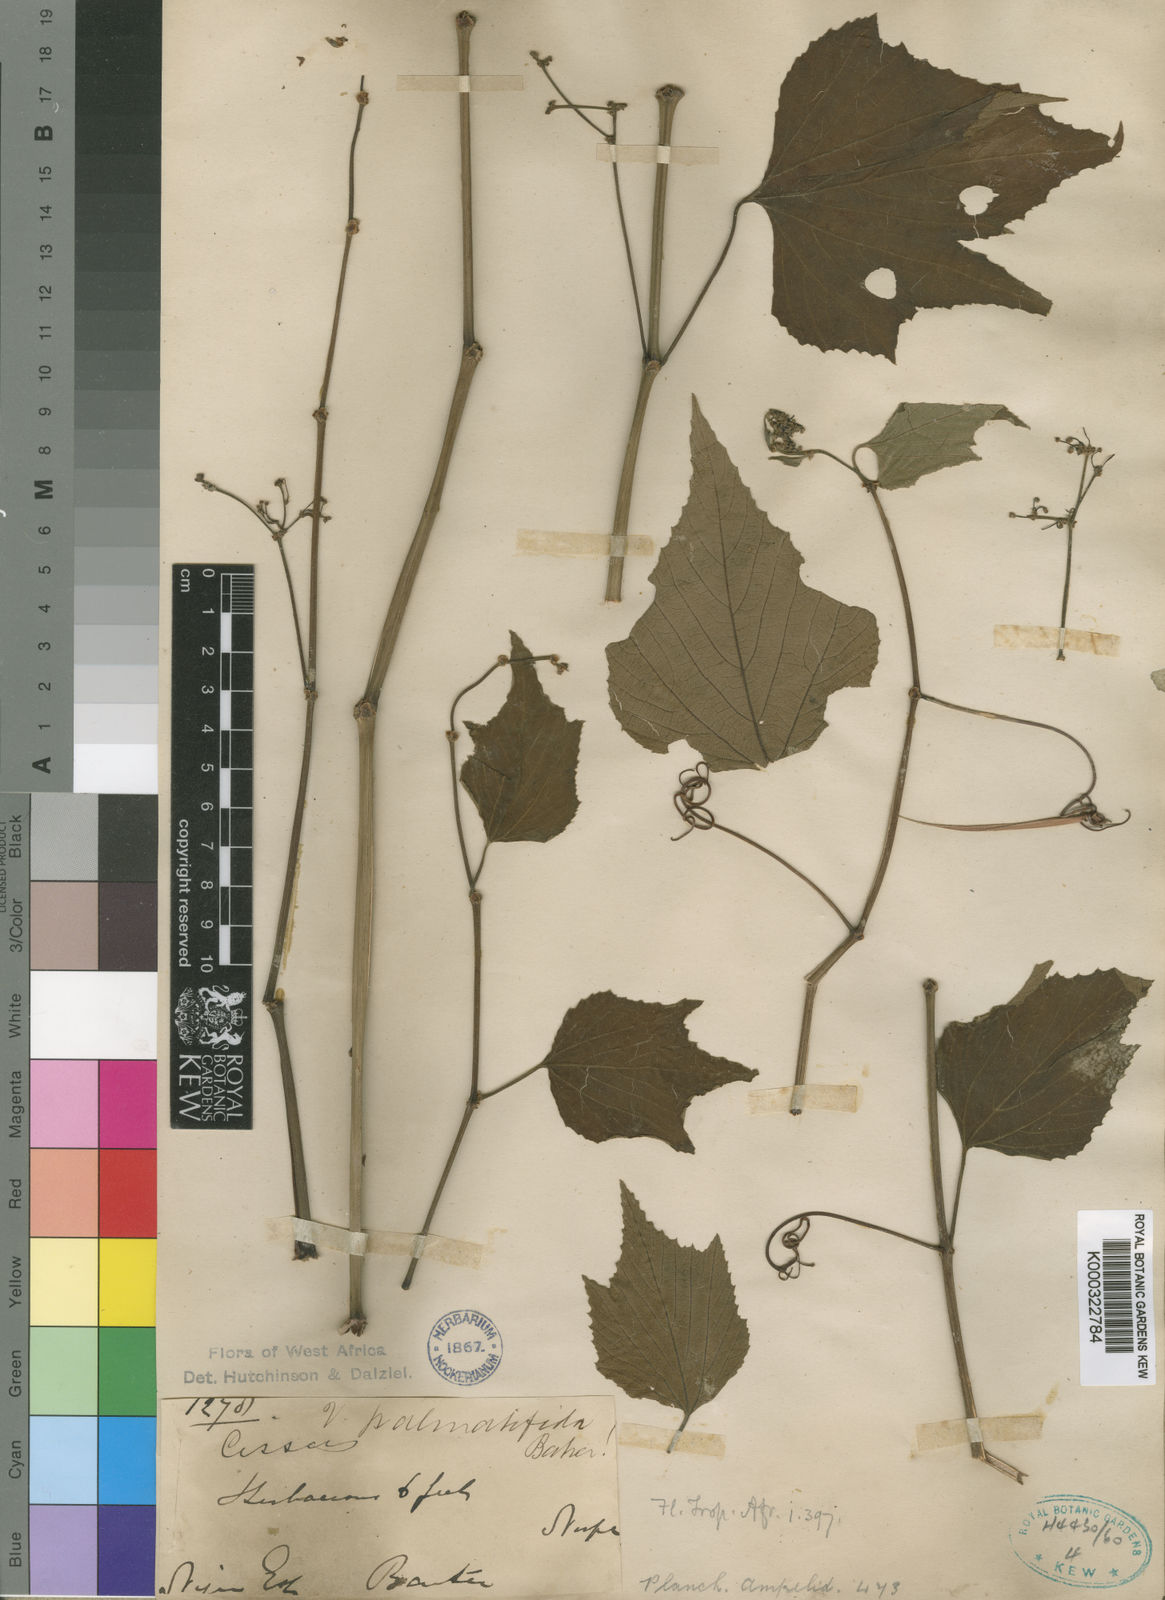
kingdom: Plantae
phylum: Tracheophyta
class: Magnoliopsida
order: Vitales
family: Vitaceae
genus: Cissus
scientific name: Cissus palmatifida
